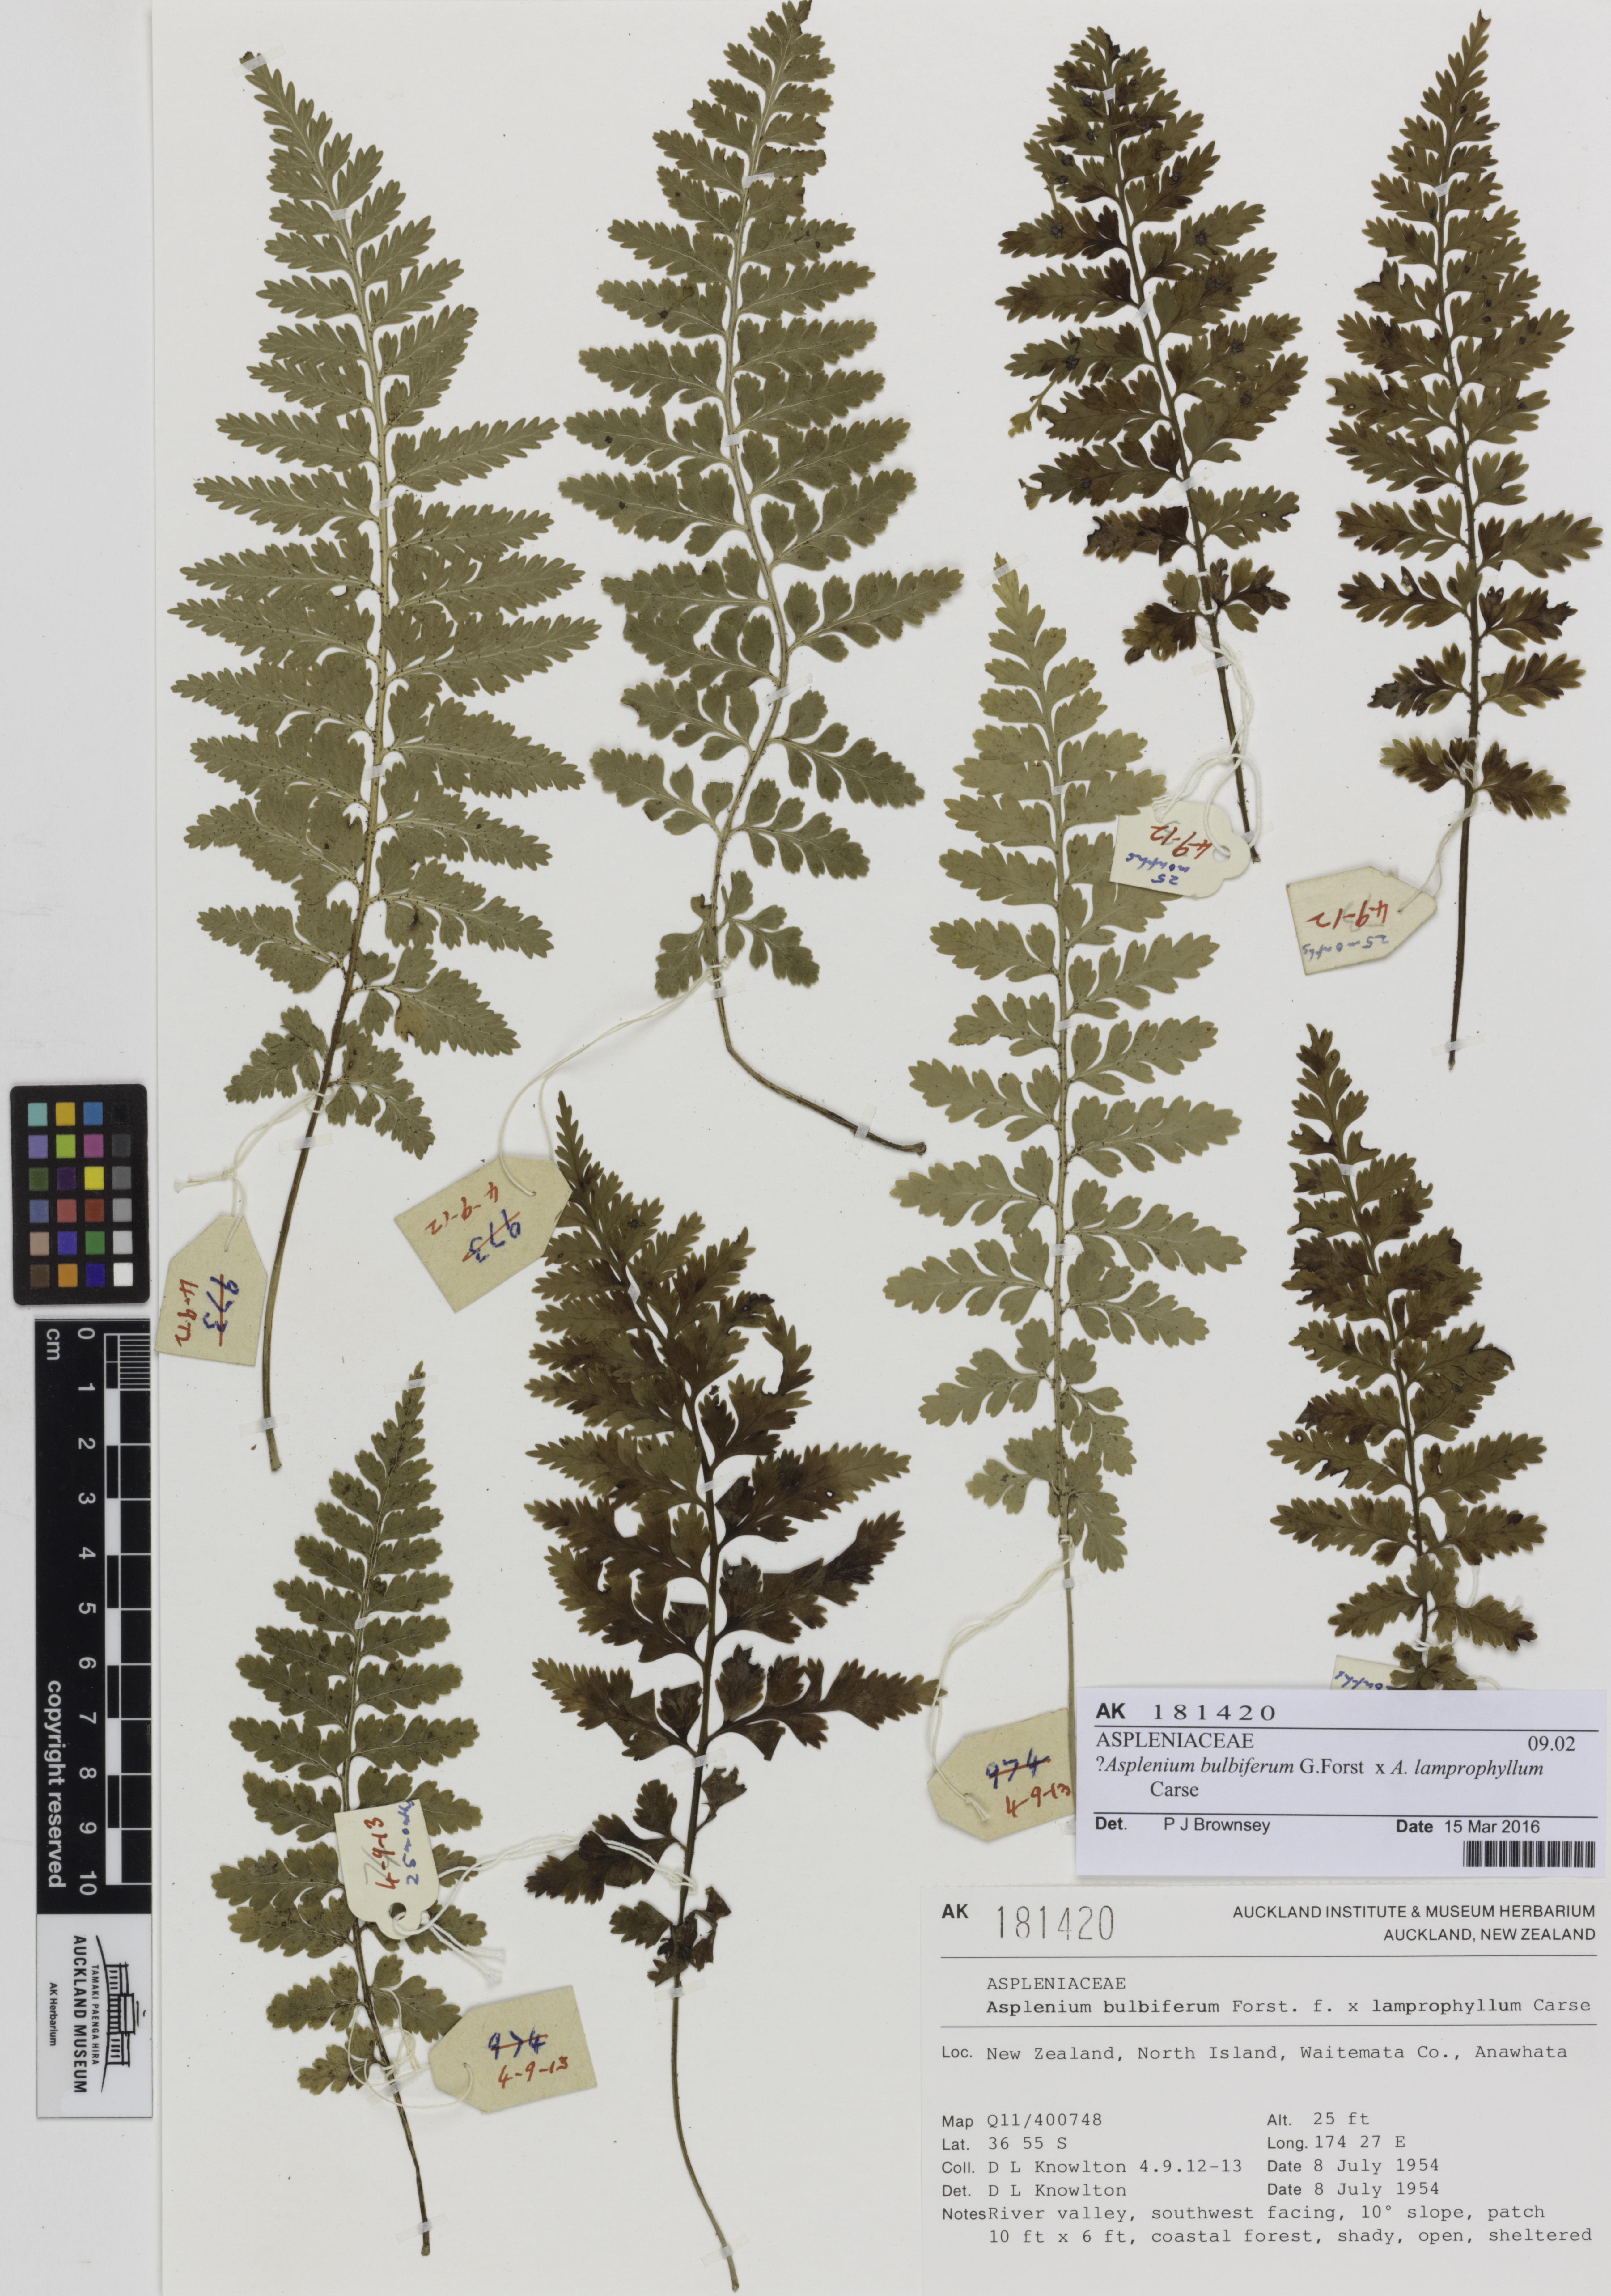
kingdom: Plantae
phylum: Tracheophyta
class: Polypodiopsida
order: Polypodiales
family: Aspleniaceae
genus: Asplenium
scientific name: Asplenium
